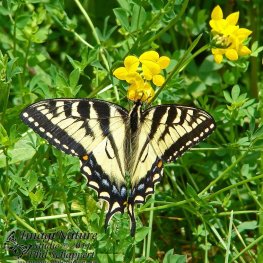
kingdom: Animalia
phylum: Arthropoda
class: Insecta
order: Lepidoptera
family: Papilionidae
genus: Pterourus
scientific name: Pterourus canadensis
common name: Canadian Tiger Swallowtail
